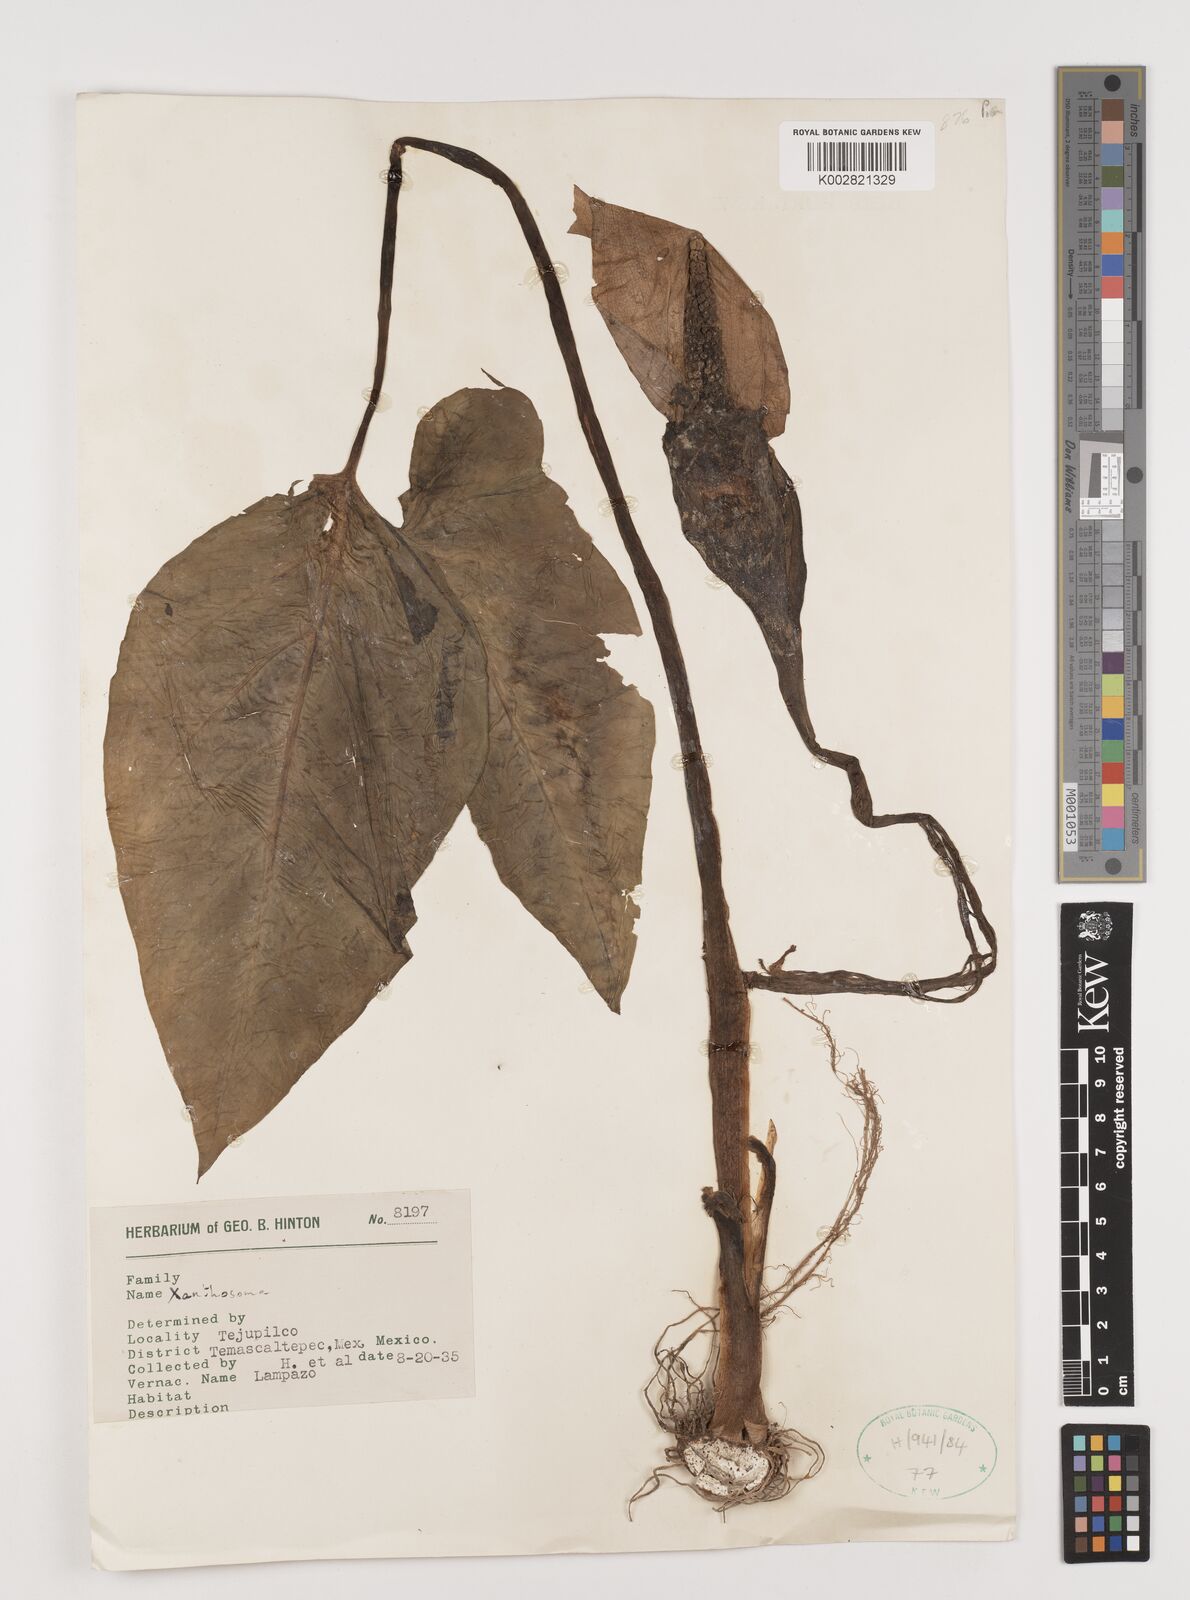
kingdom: Plantae
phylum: Tracheophyta
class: Liliopsida
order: Alismatales
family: Araceae
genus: Xanthosoma
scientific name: Xanthosoma
